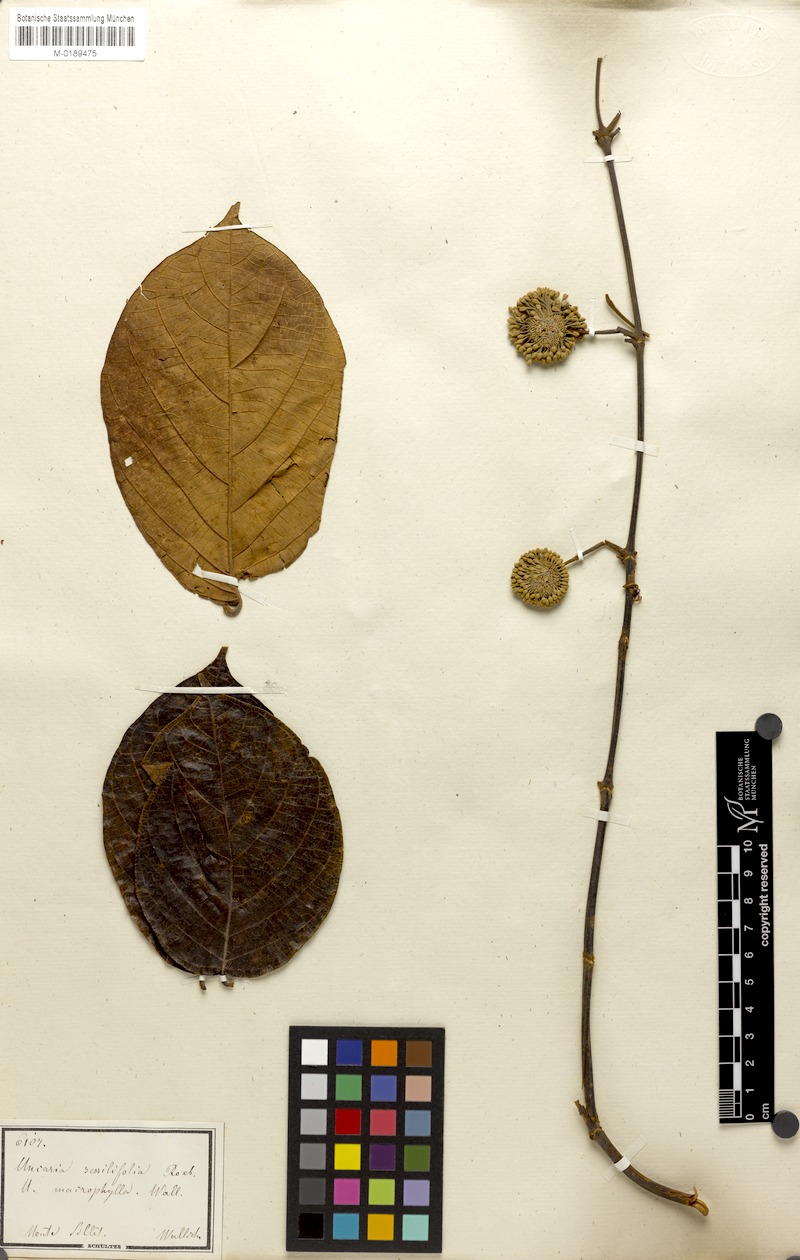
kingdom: Plantae
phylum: Tracheophyta
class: Magnoliopsida
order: Gentianales
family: Rubiaceae
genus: Uncaria
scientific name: Uncaria macrophylla
